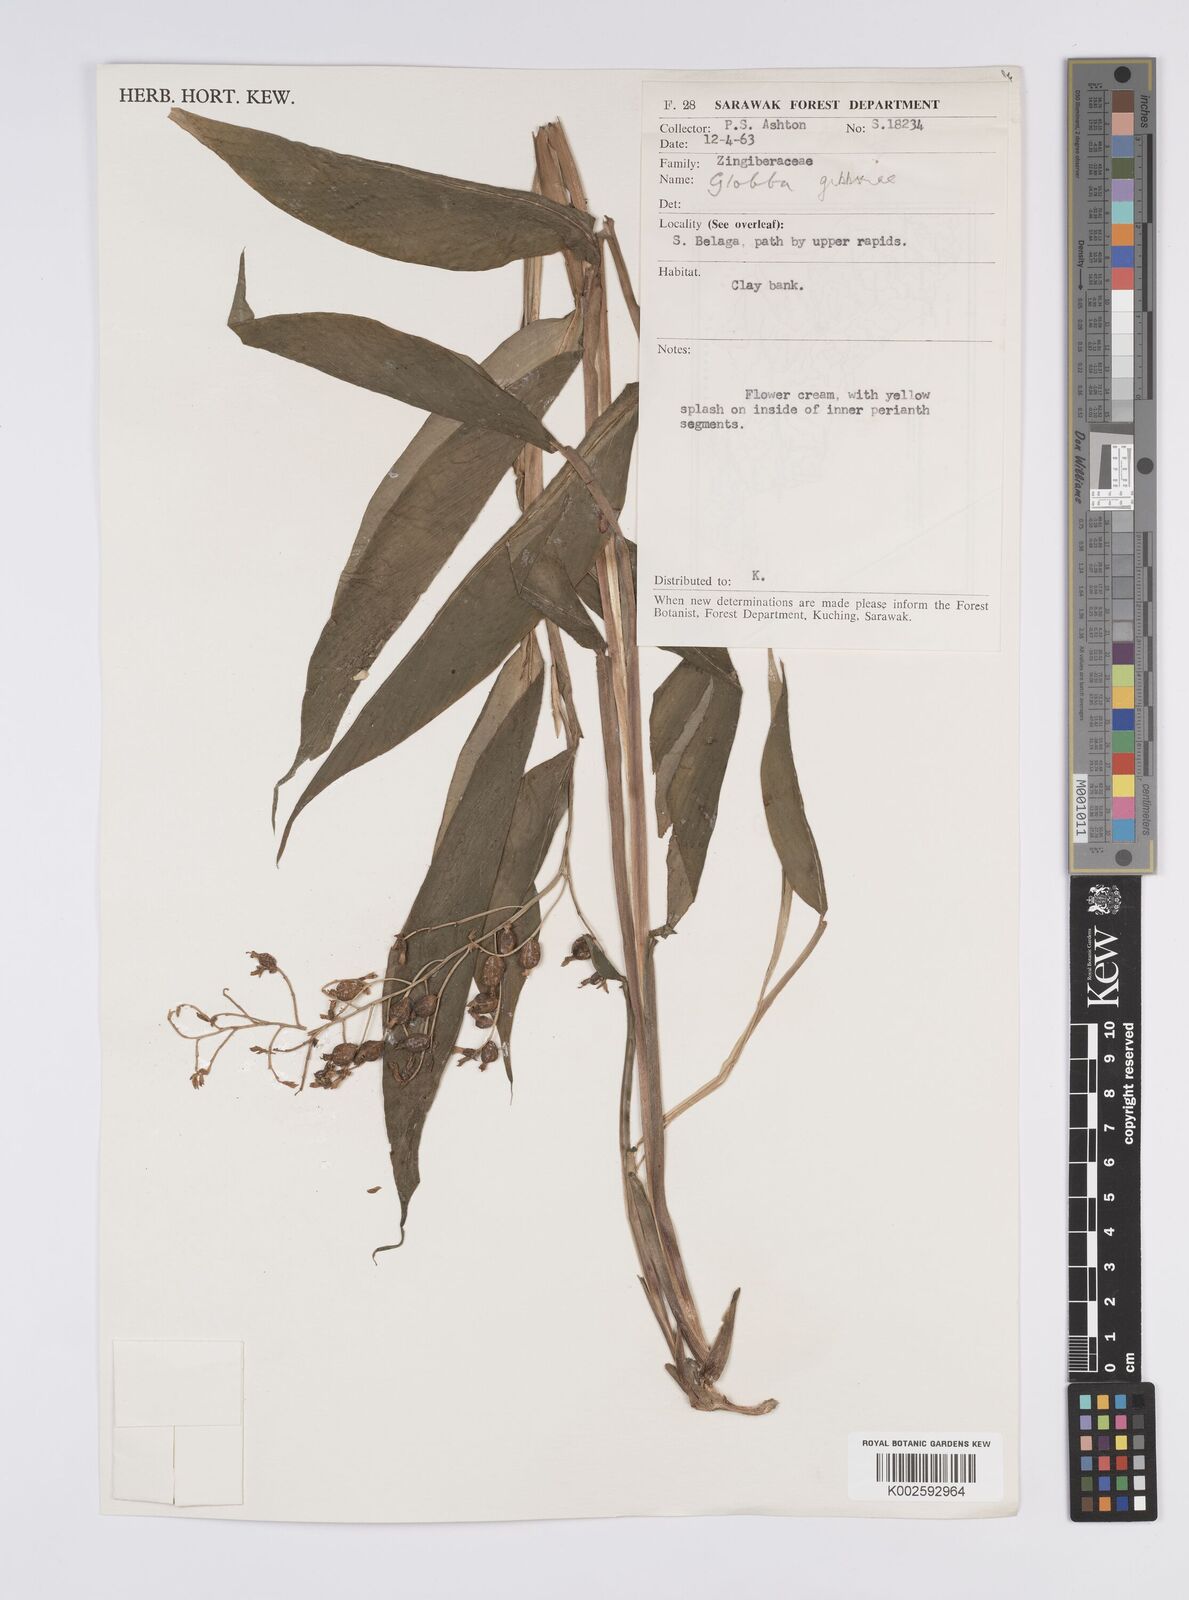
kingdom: Plantae
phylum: Tracheophyta
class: Liliopsida
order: Zingiberales
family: Zingiberaceae
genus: Globba
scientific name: Globba tricolor
